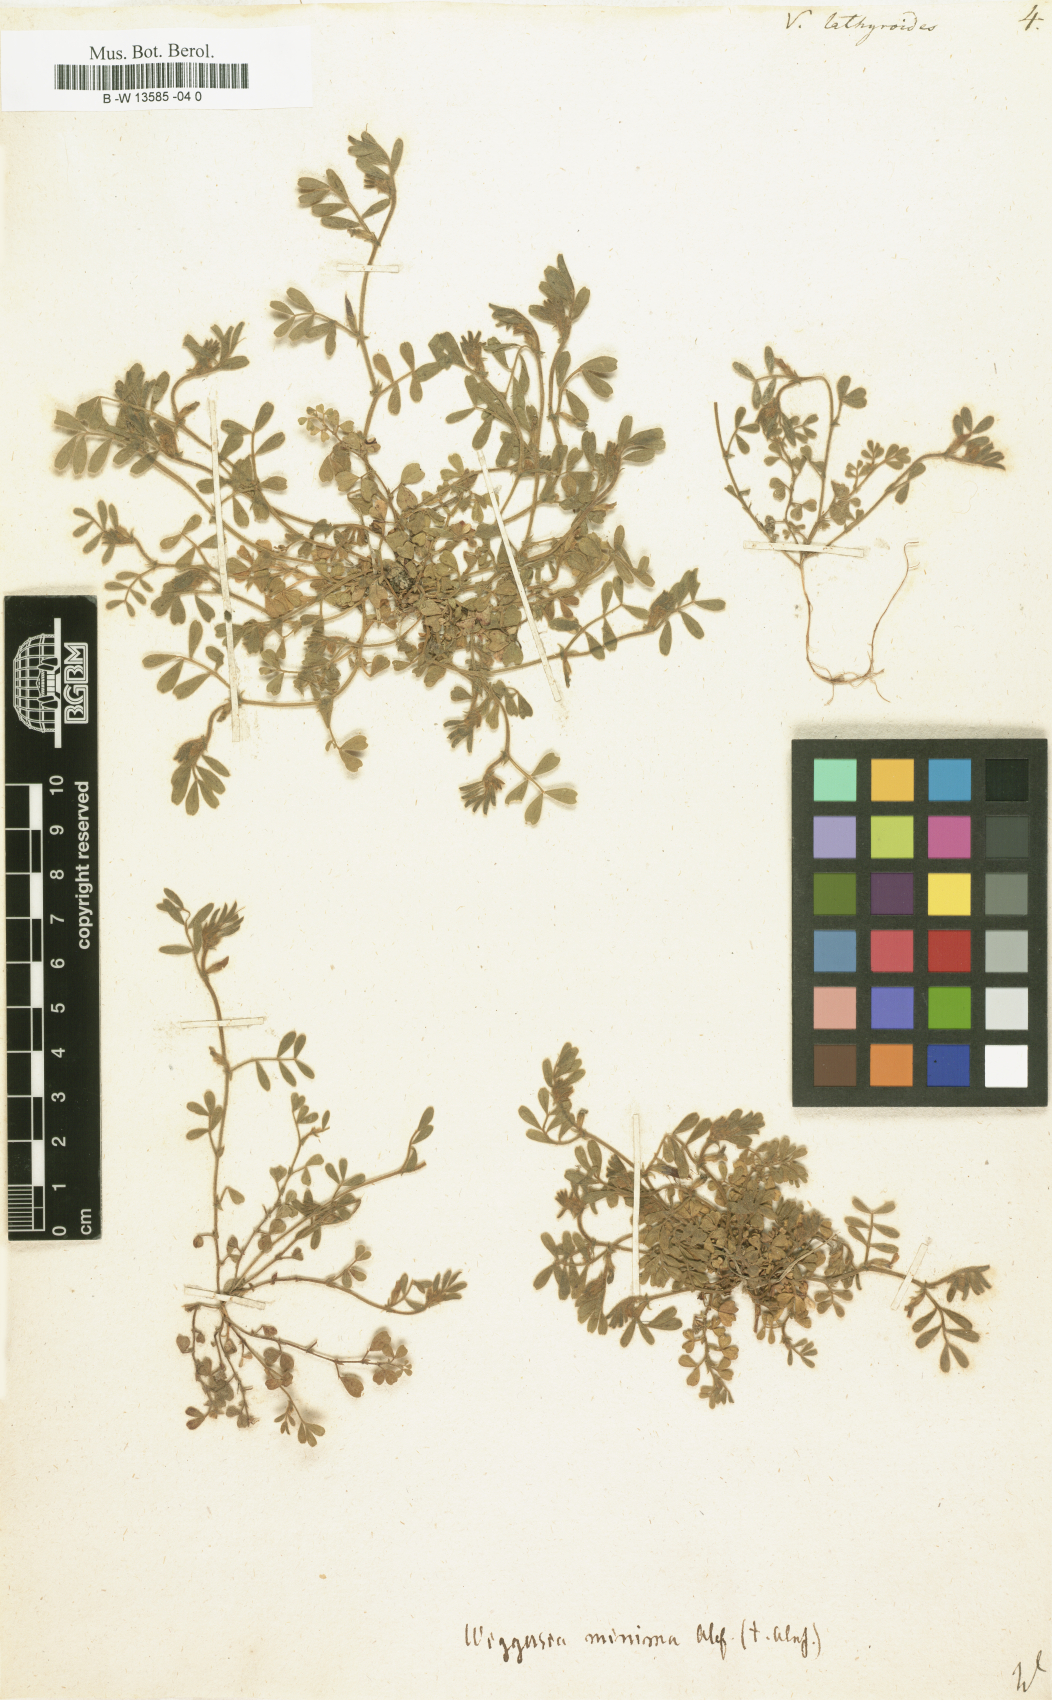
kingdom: Plantae
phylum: Tracheophyta
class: Magnoliopsida
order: Fabales
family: Fabaceae
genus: Vicia
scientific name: Vicia lathyroides
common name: Spring vetch
